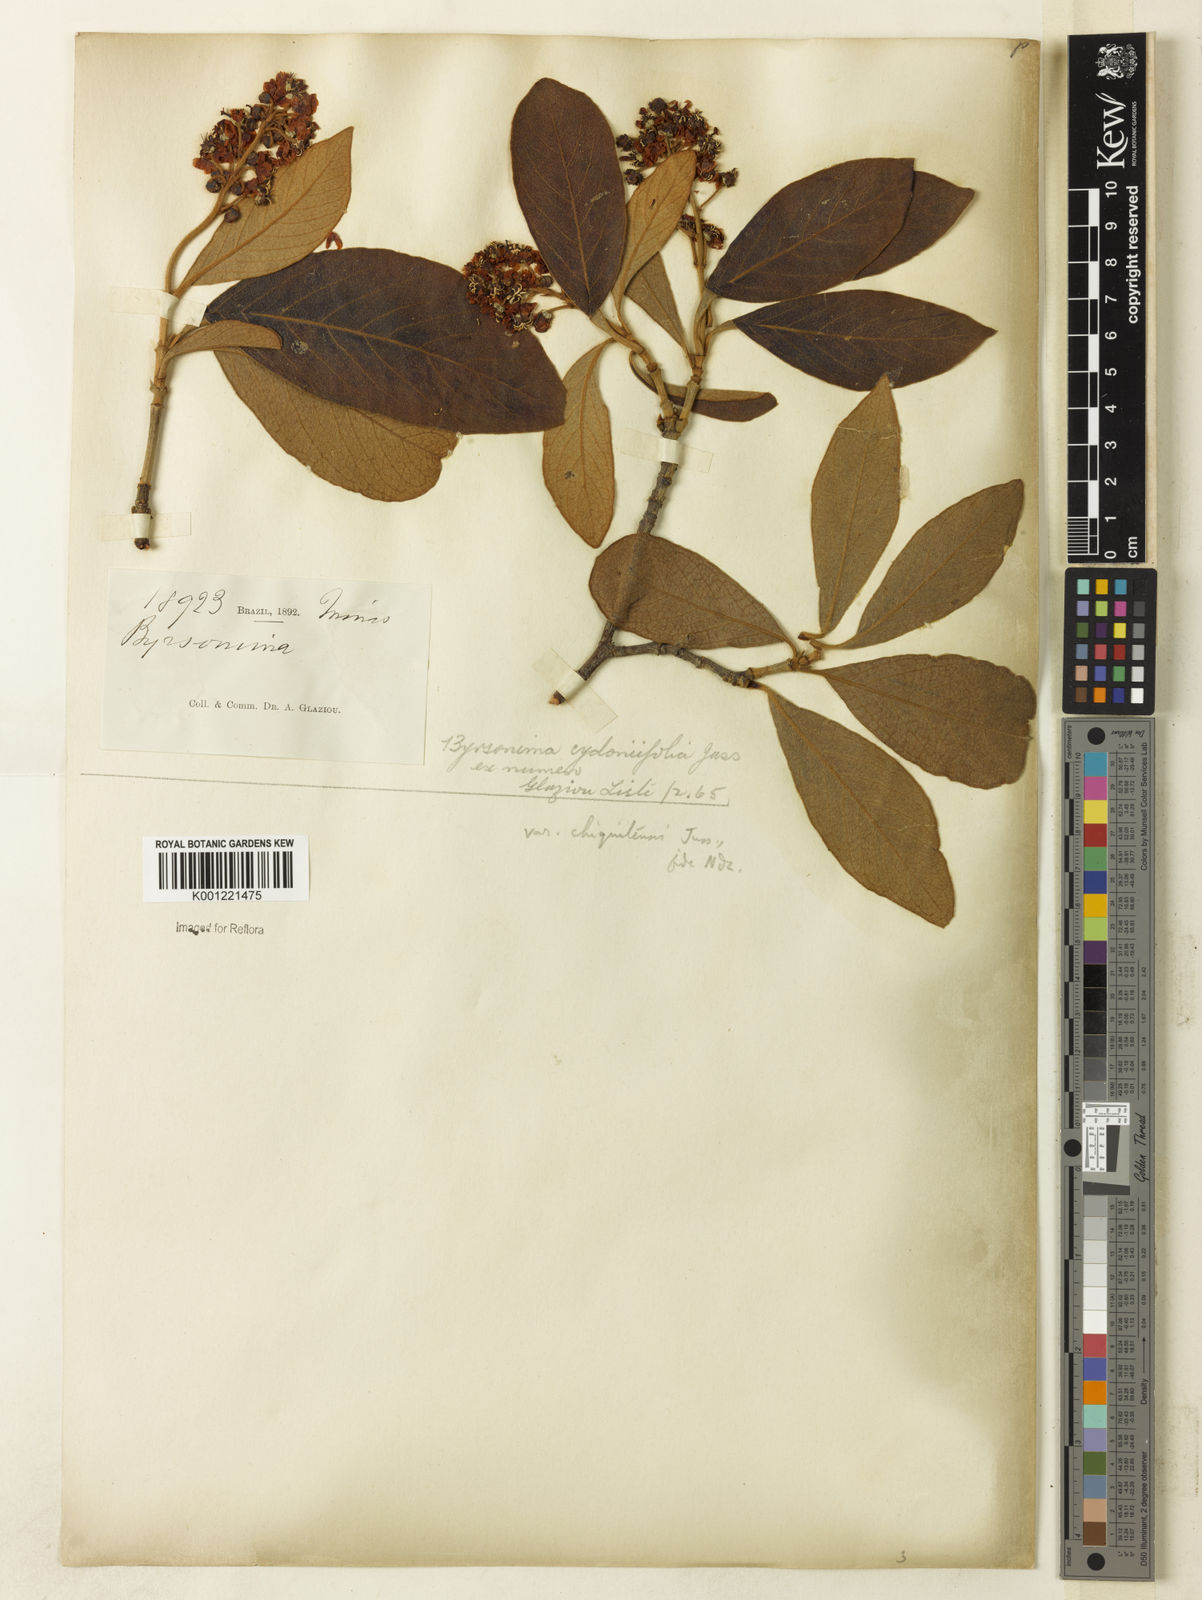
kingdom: Plantae
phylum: Tracheophyta
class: Magnoliopsida
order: Malpighiales
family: Malpighiaceae
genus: Byrsonima
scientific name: Byrsonima cydoniifolia
